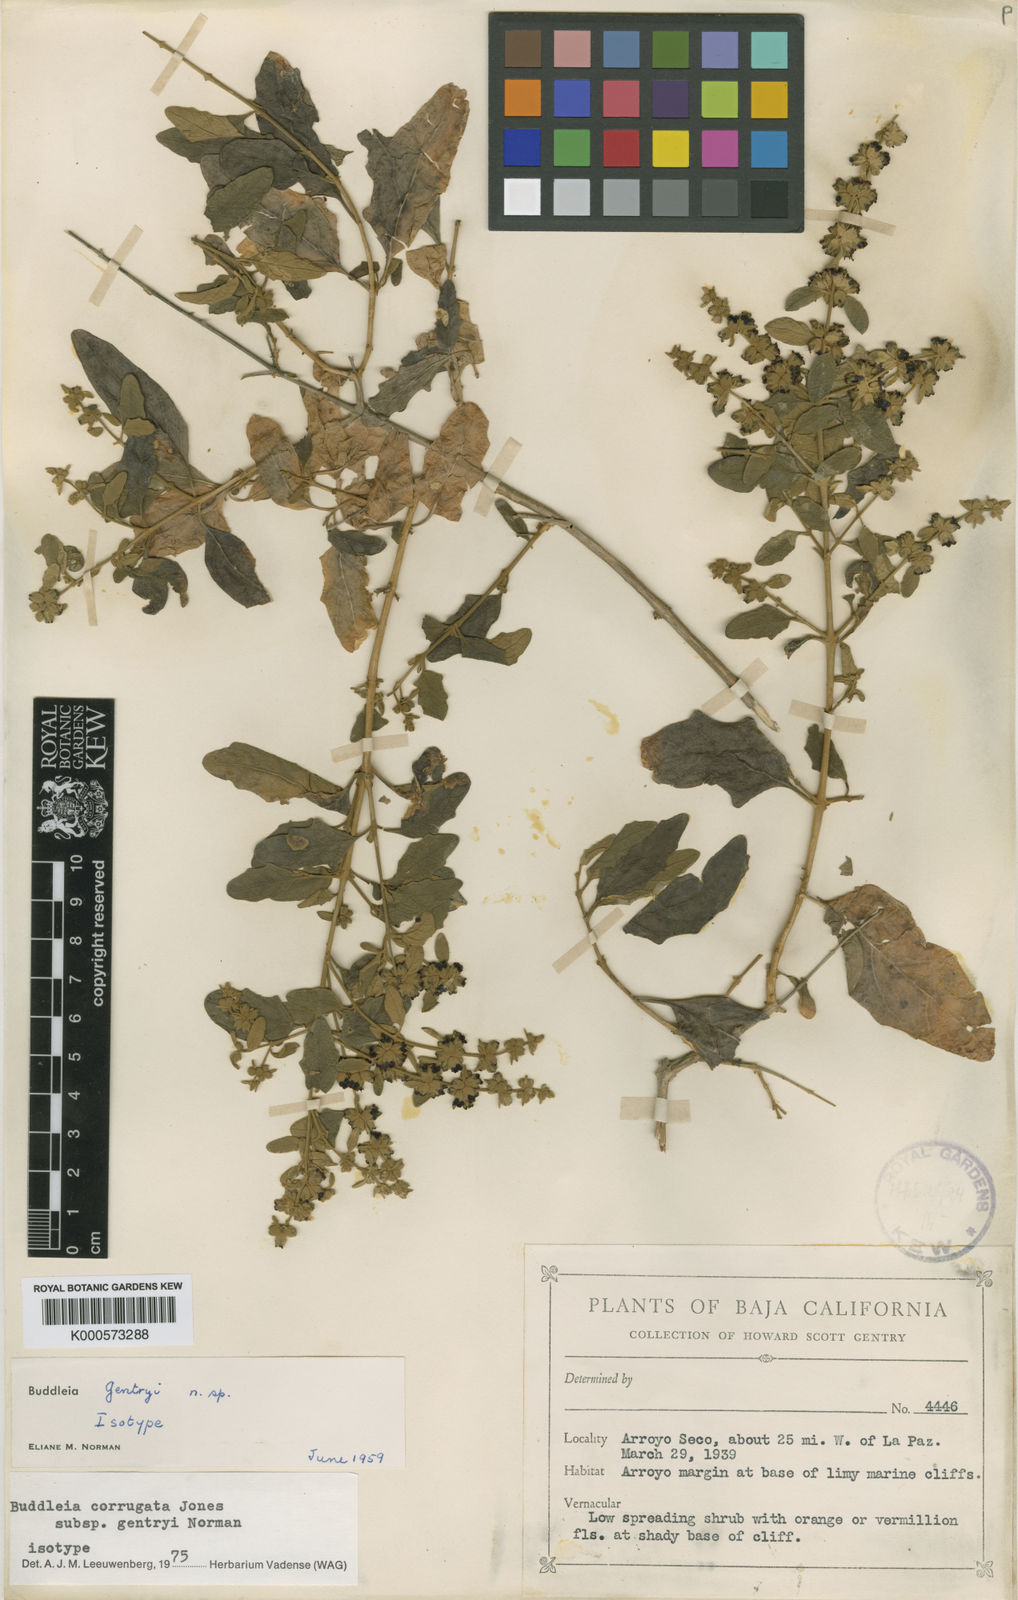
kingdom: Plantae
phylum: Tracheophyta
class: Magnoliopsida
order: Lamiales
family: Scrophulariaceae
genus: Buddleja
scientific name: Buddleja corrugata
